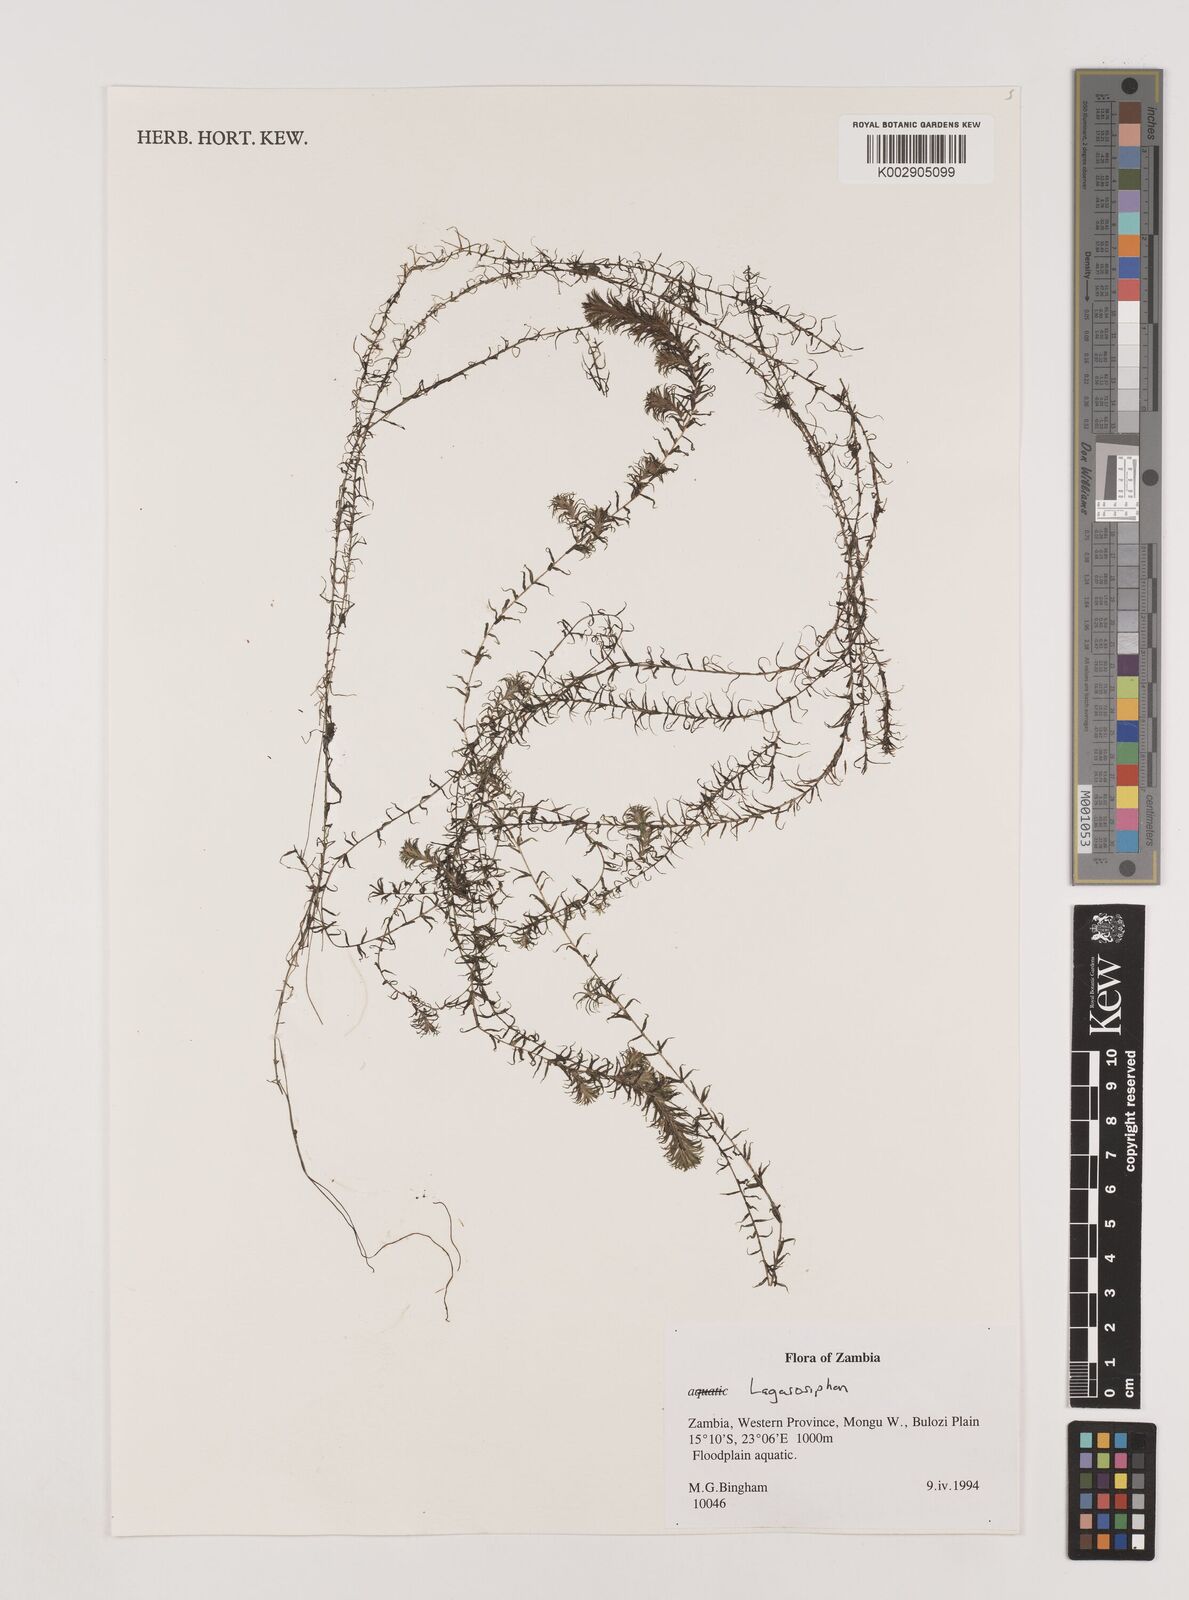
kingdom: Plantae
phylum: Tracheophyta
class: Liliopsida
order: Alismatales
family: Hydrocharitaceae
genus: Lagarosiphon
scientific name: Lagarosiphon
